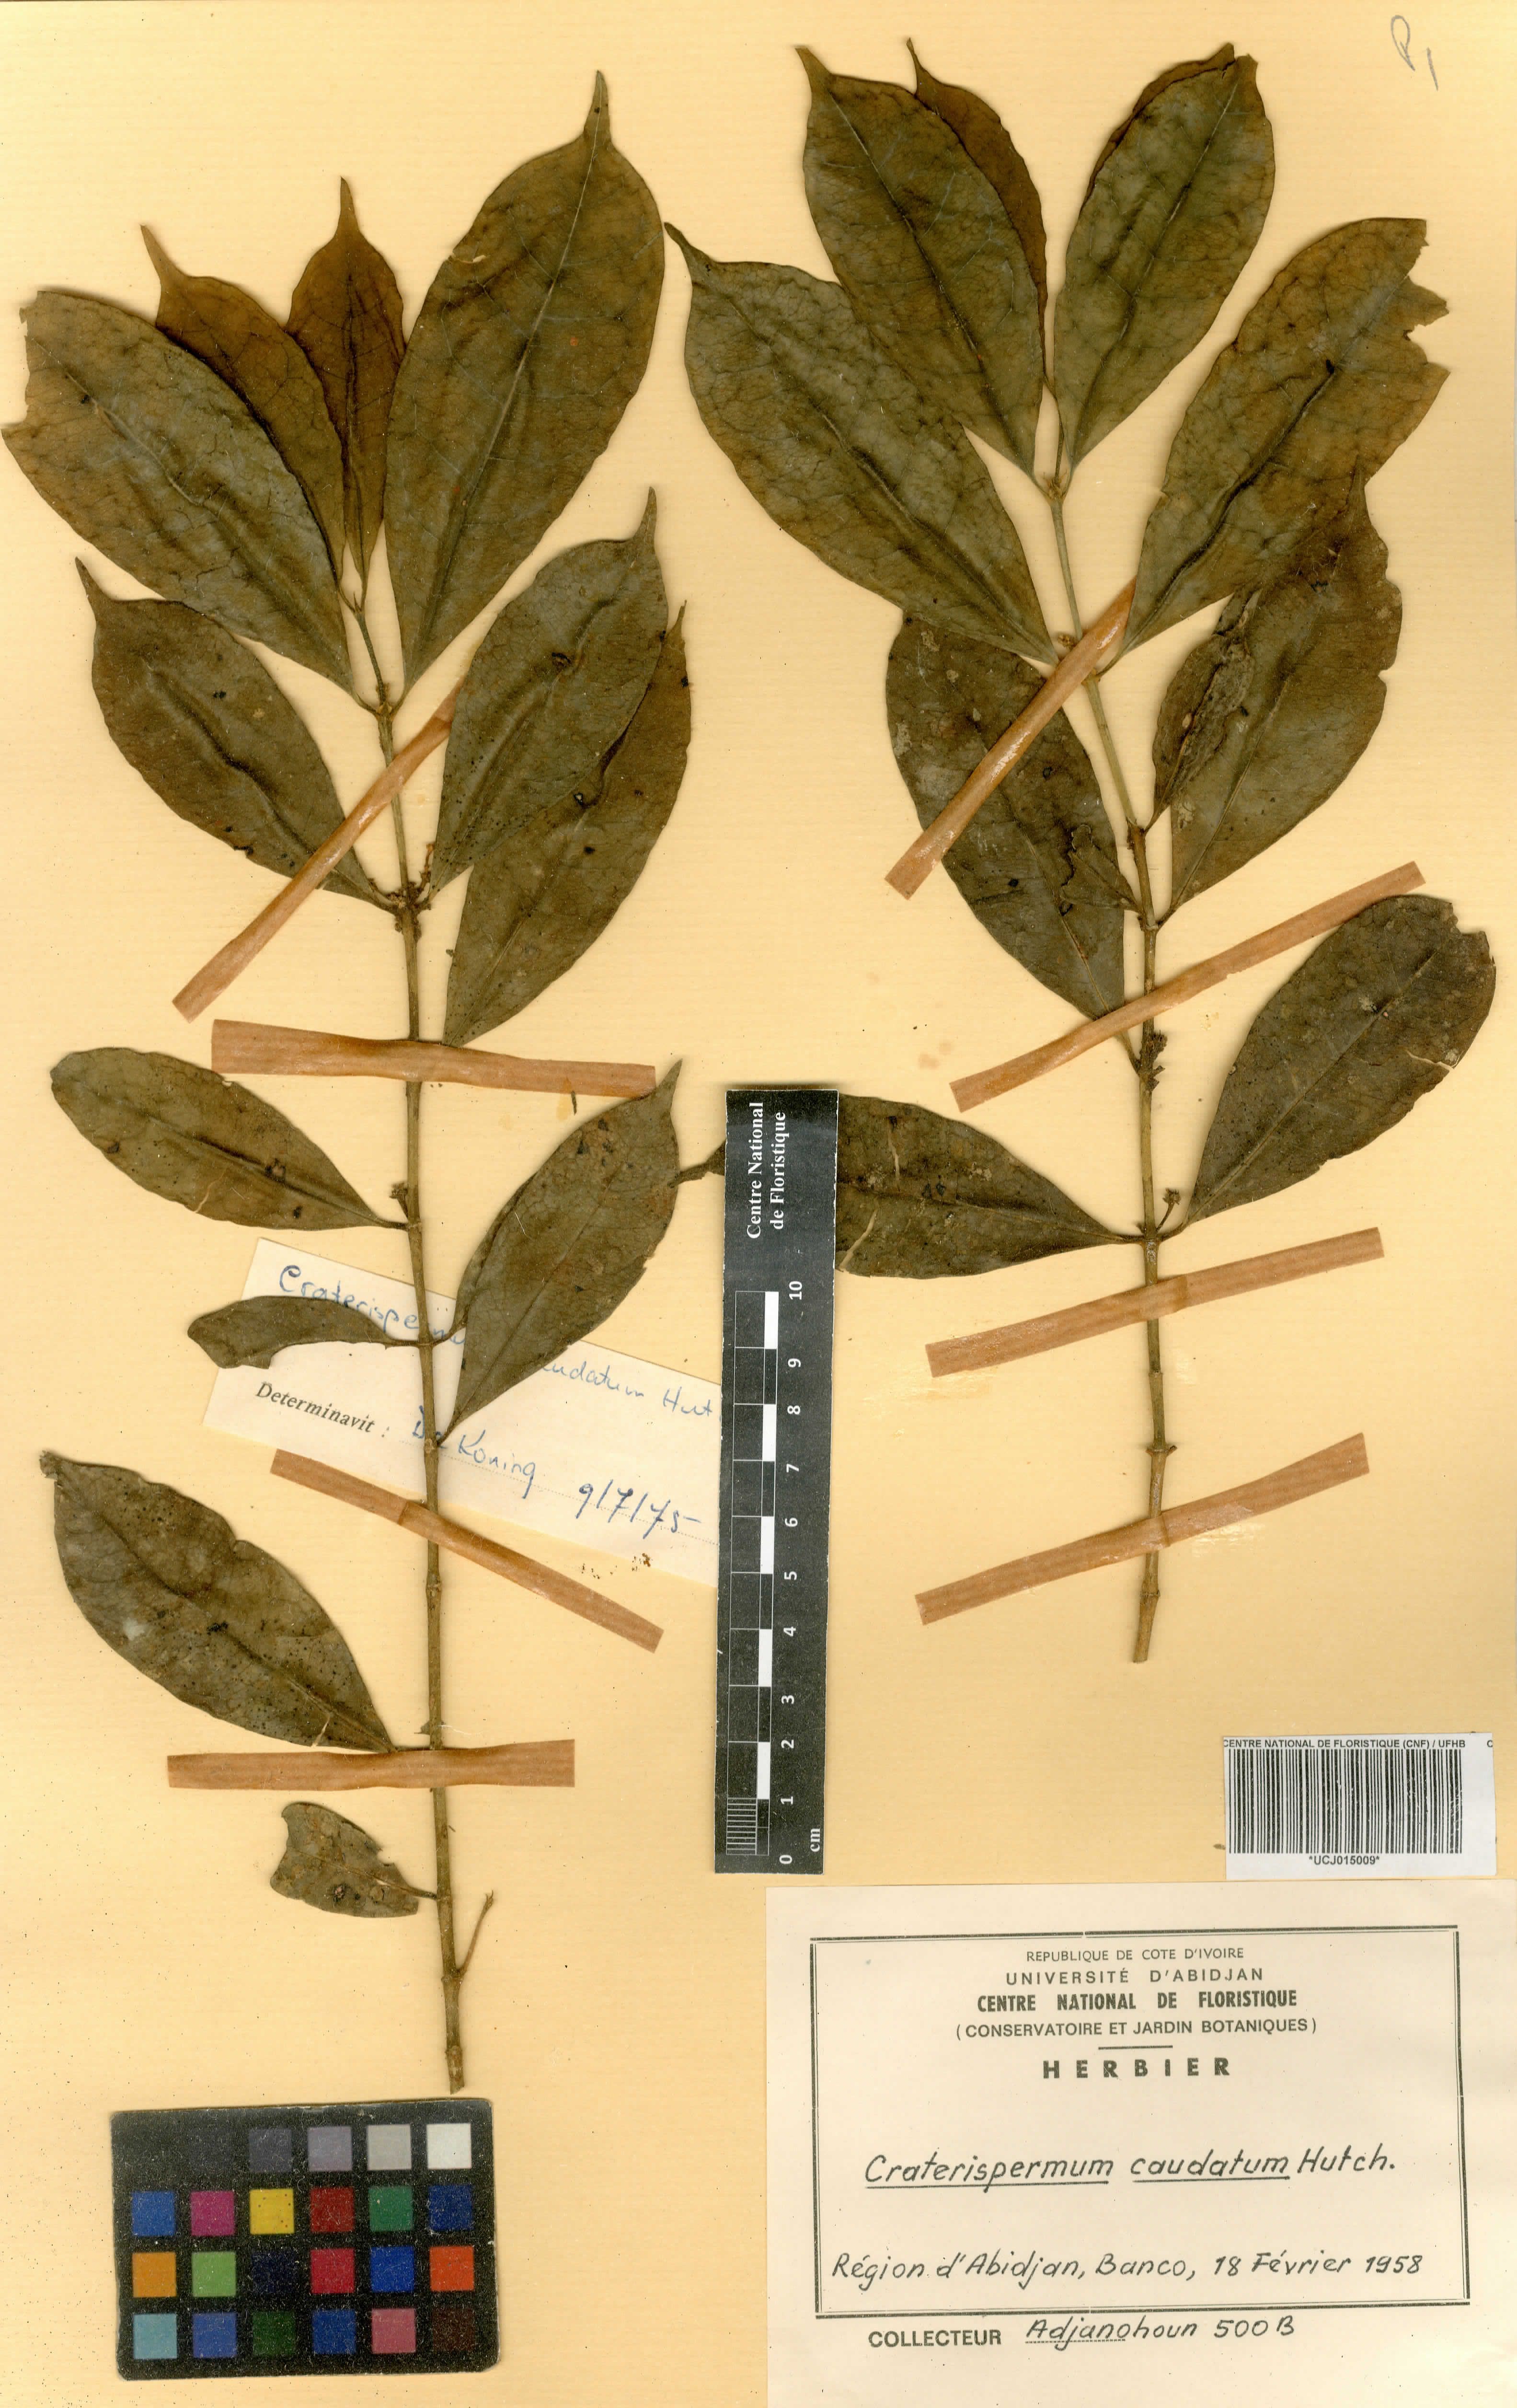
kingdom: Plantae
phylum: Tracheophyta
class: Magnoliopsida
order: Gentianales
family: Rubiaceae
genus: Craterispermum
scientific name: Craterispermum caudatum
